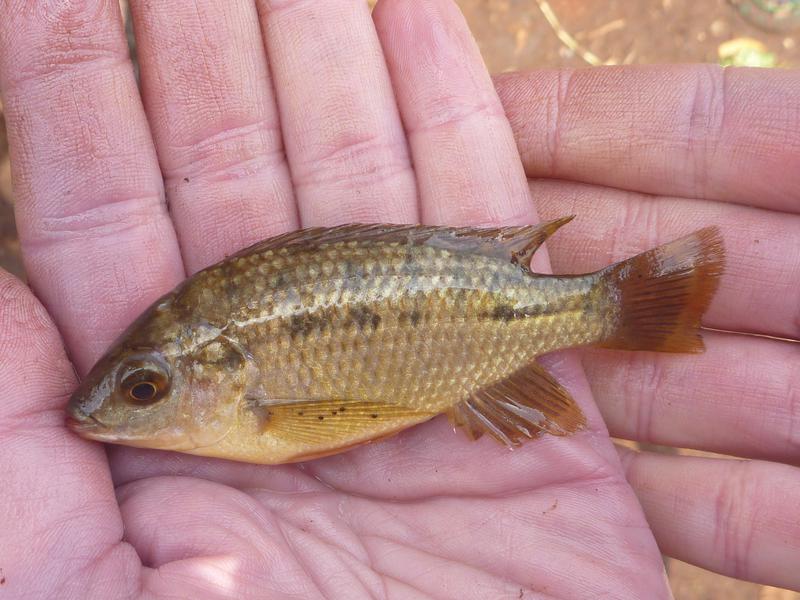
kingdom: Animalia
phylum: Chordata
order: Perciformes
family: Cichlidae
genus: Oreochromis
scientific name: Oreochromis shiranus
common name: Chilwa tilapia
